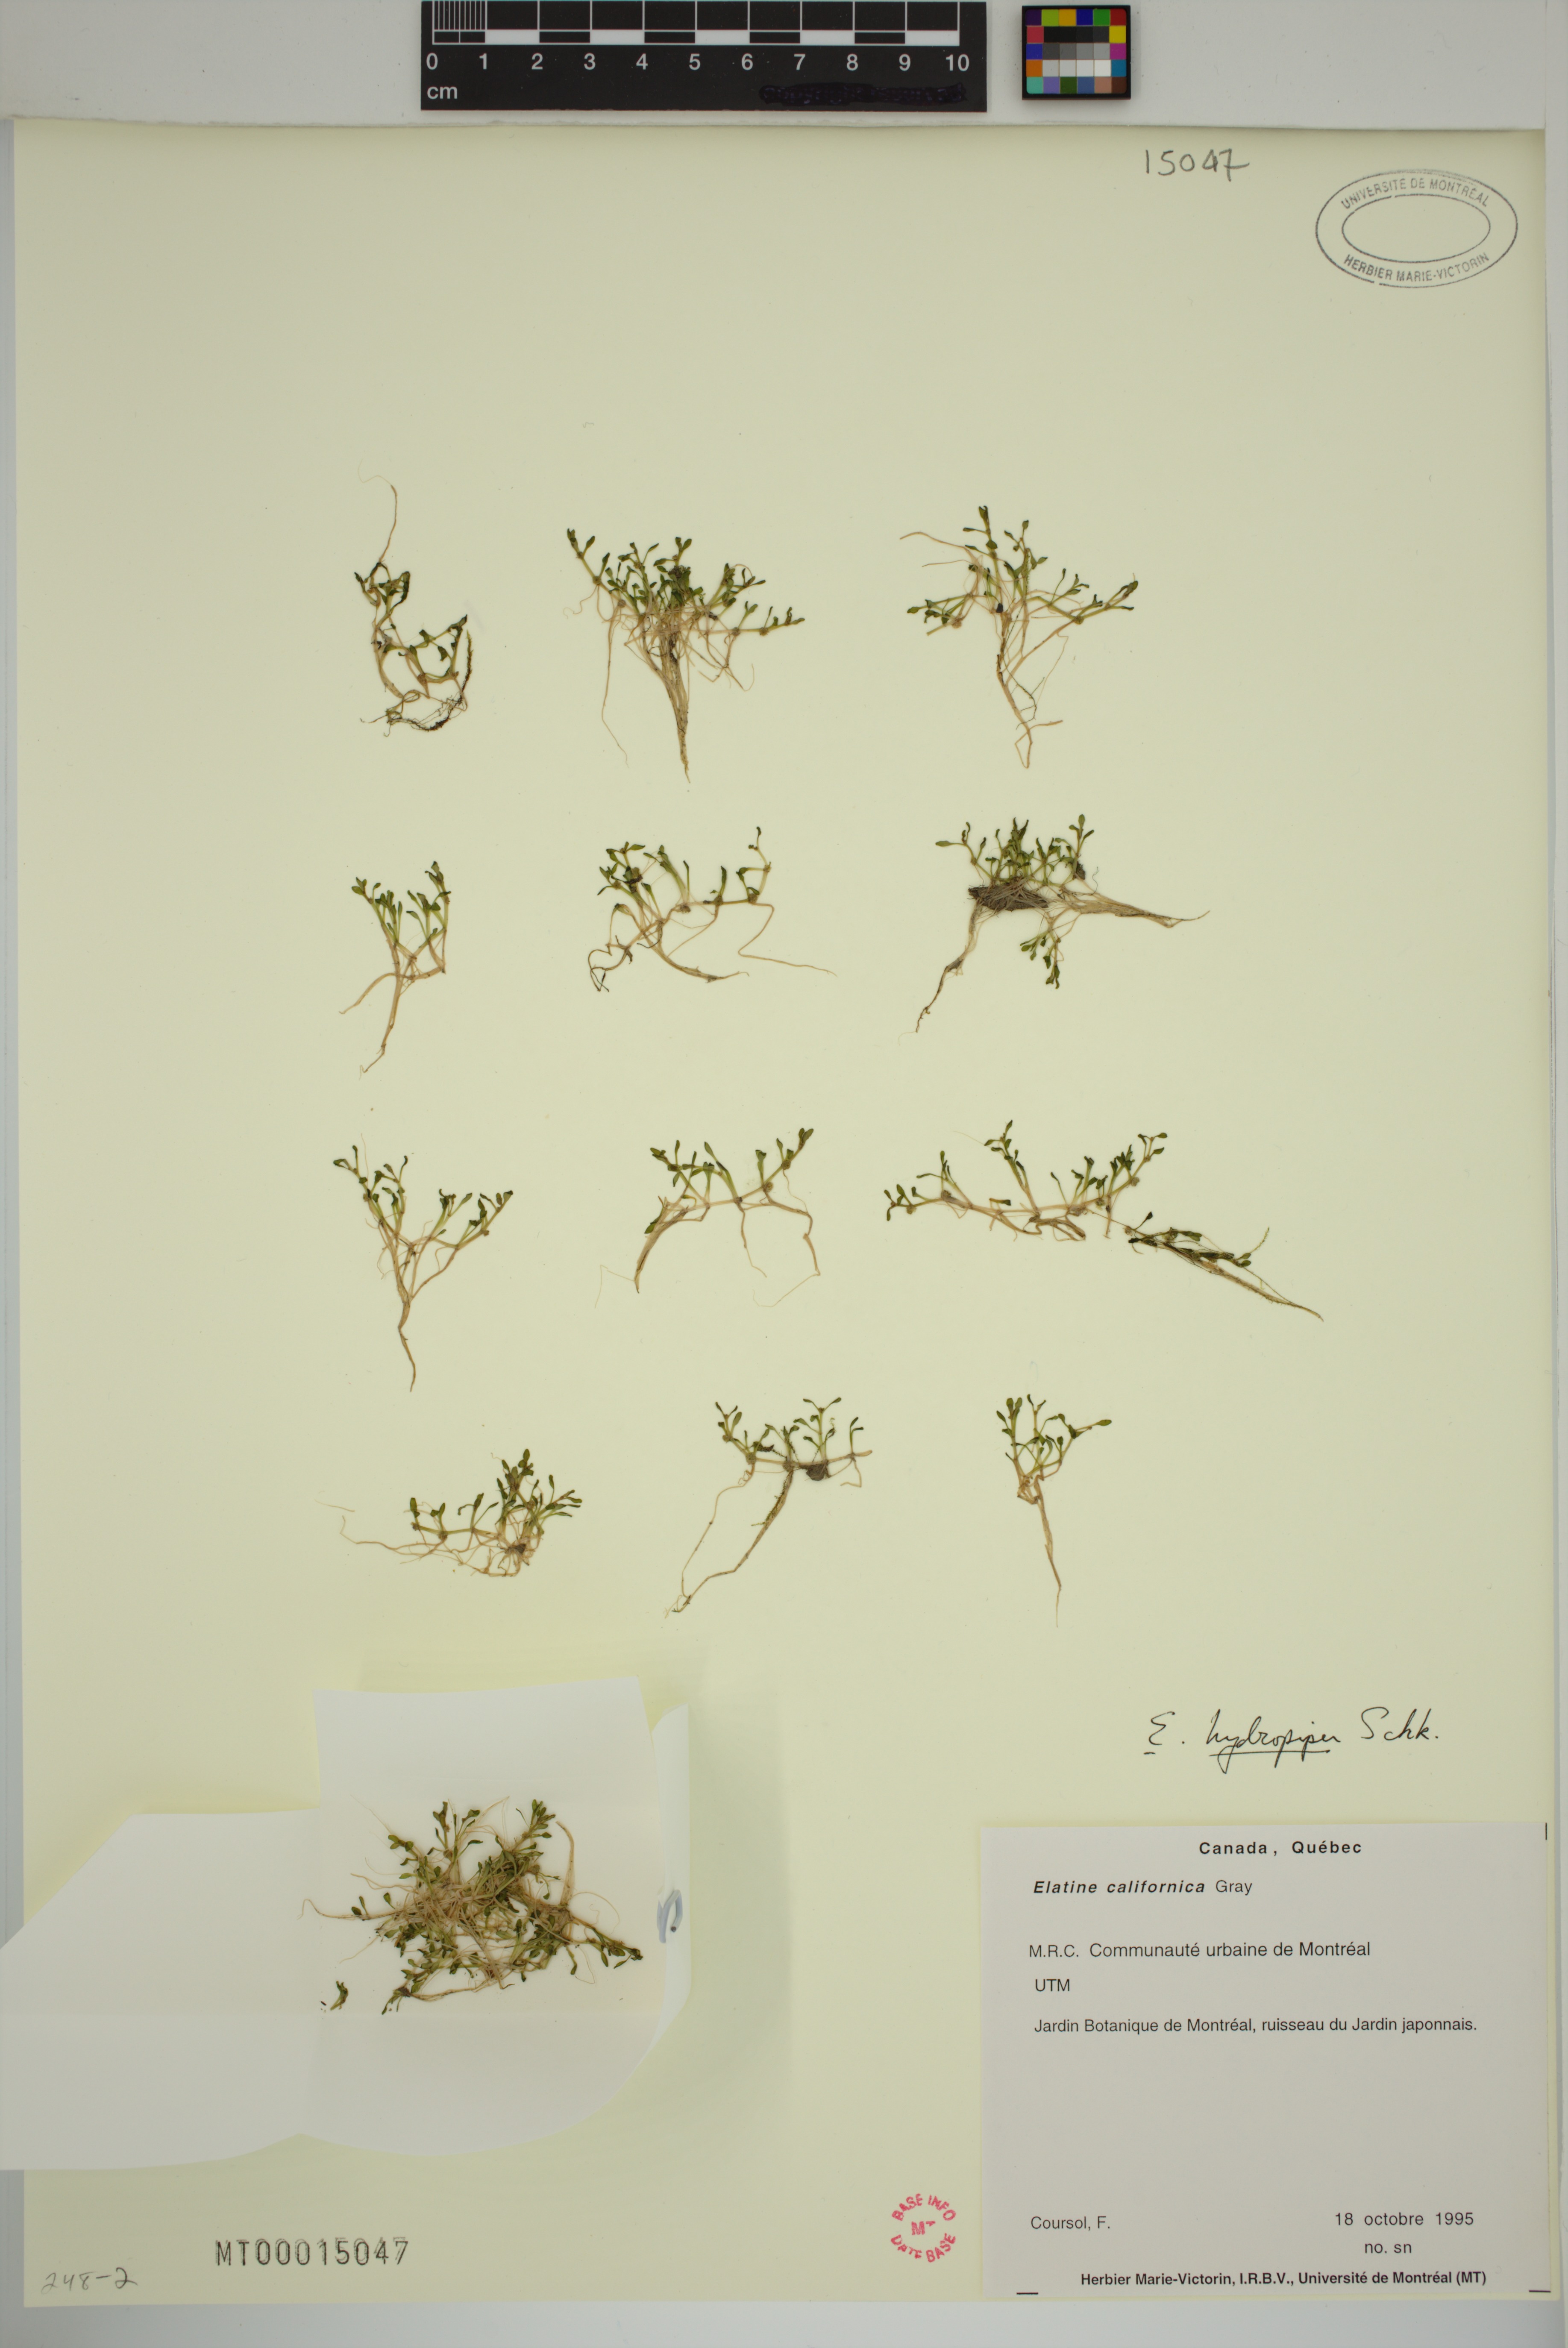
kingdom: Plantae
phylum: Tracheophyta
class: Magnoliopsida
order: Malpighiales
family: Elatinaceae
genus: Elatine
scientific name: Elatine macropoda
